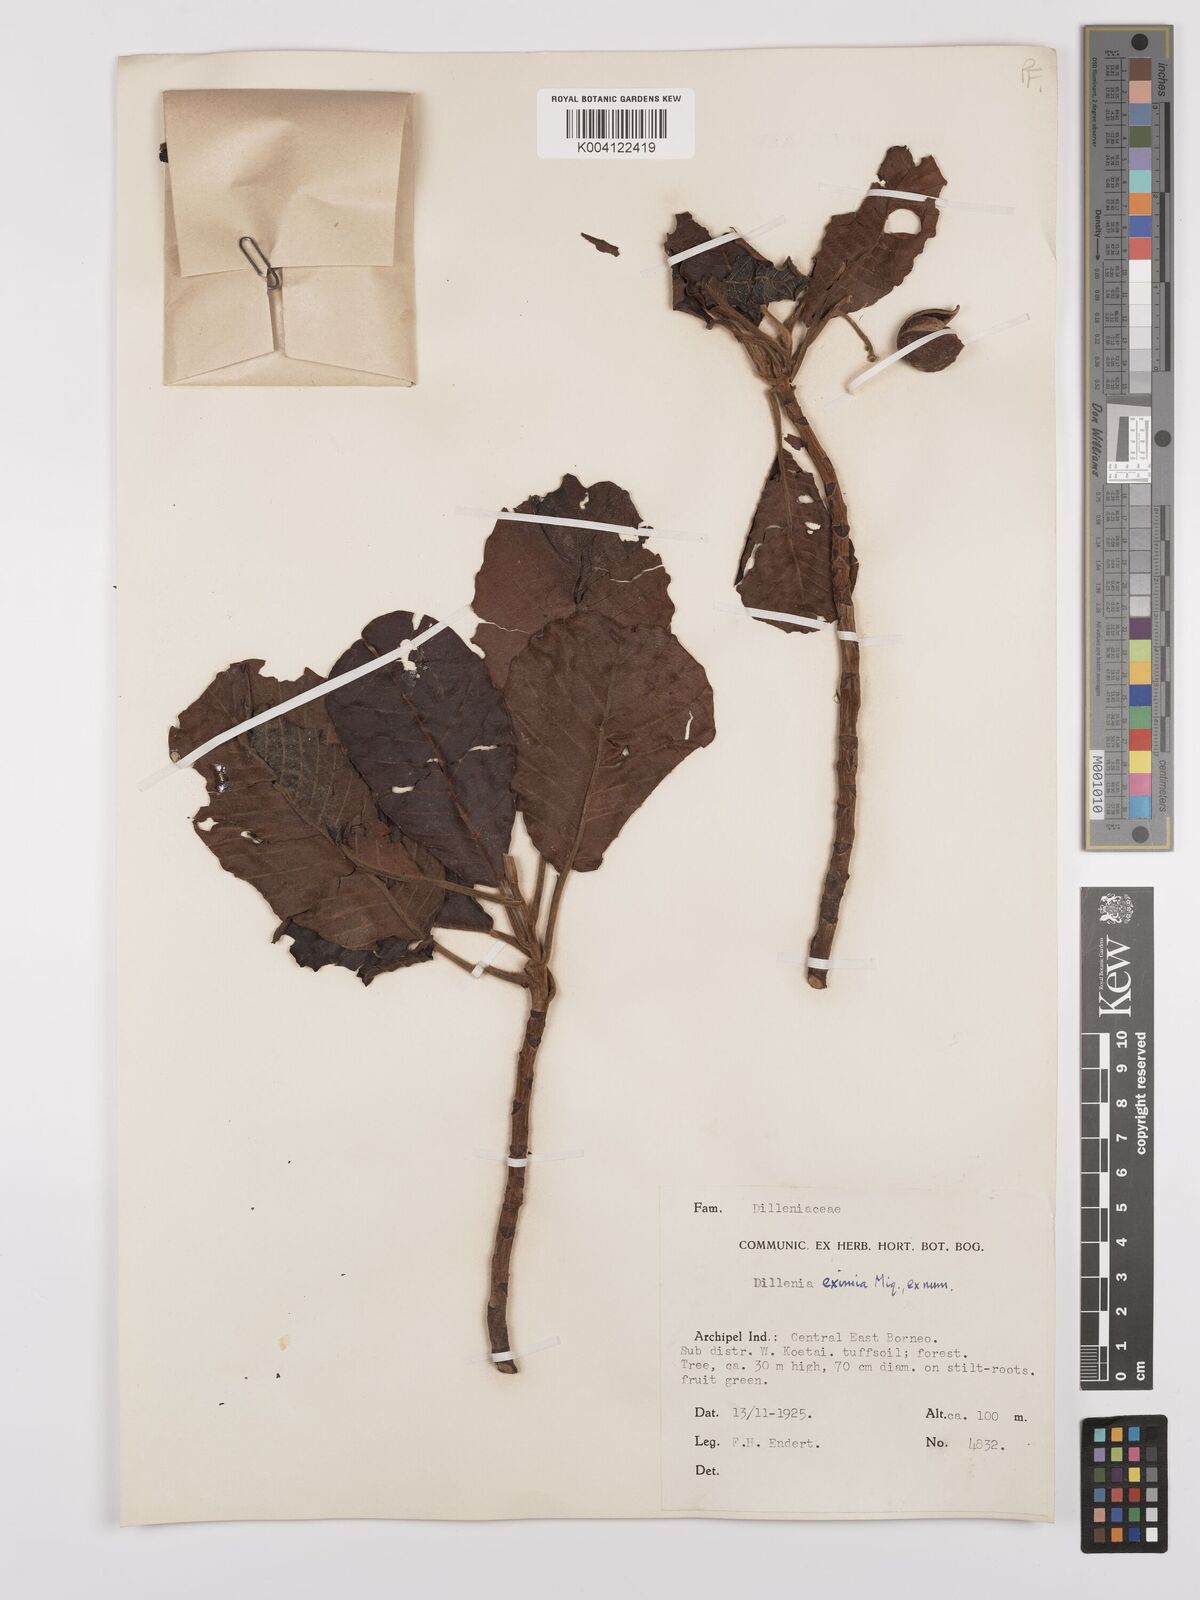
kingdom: Plantae
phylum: Tracheophyta
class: Magnoliopsida
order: Dilleniales
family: Dilleniaceae
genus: Dillenia
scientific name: Dillenia grandifolia
